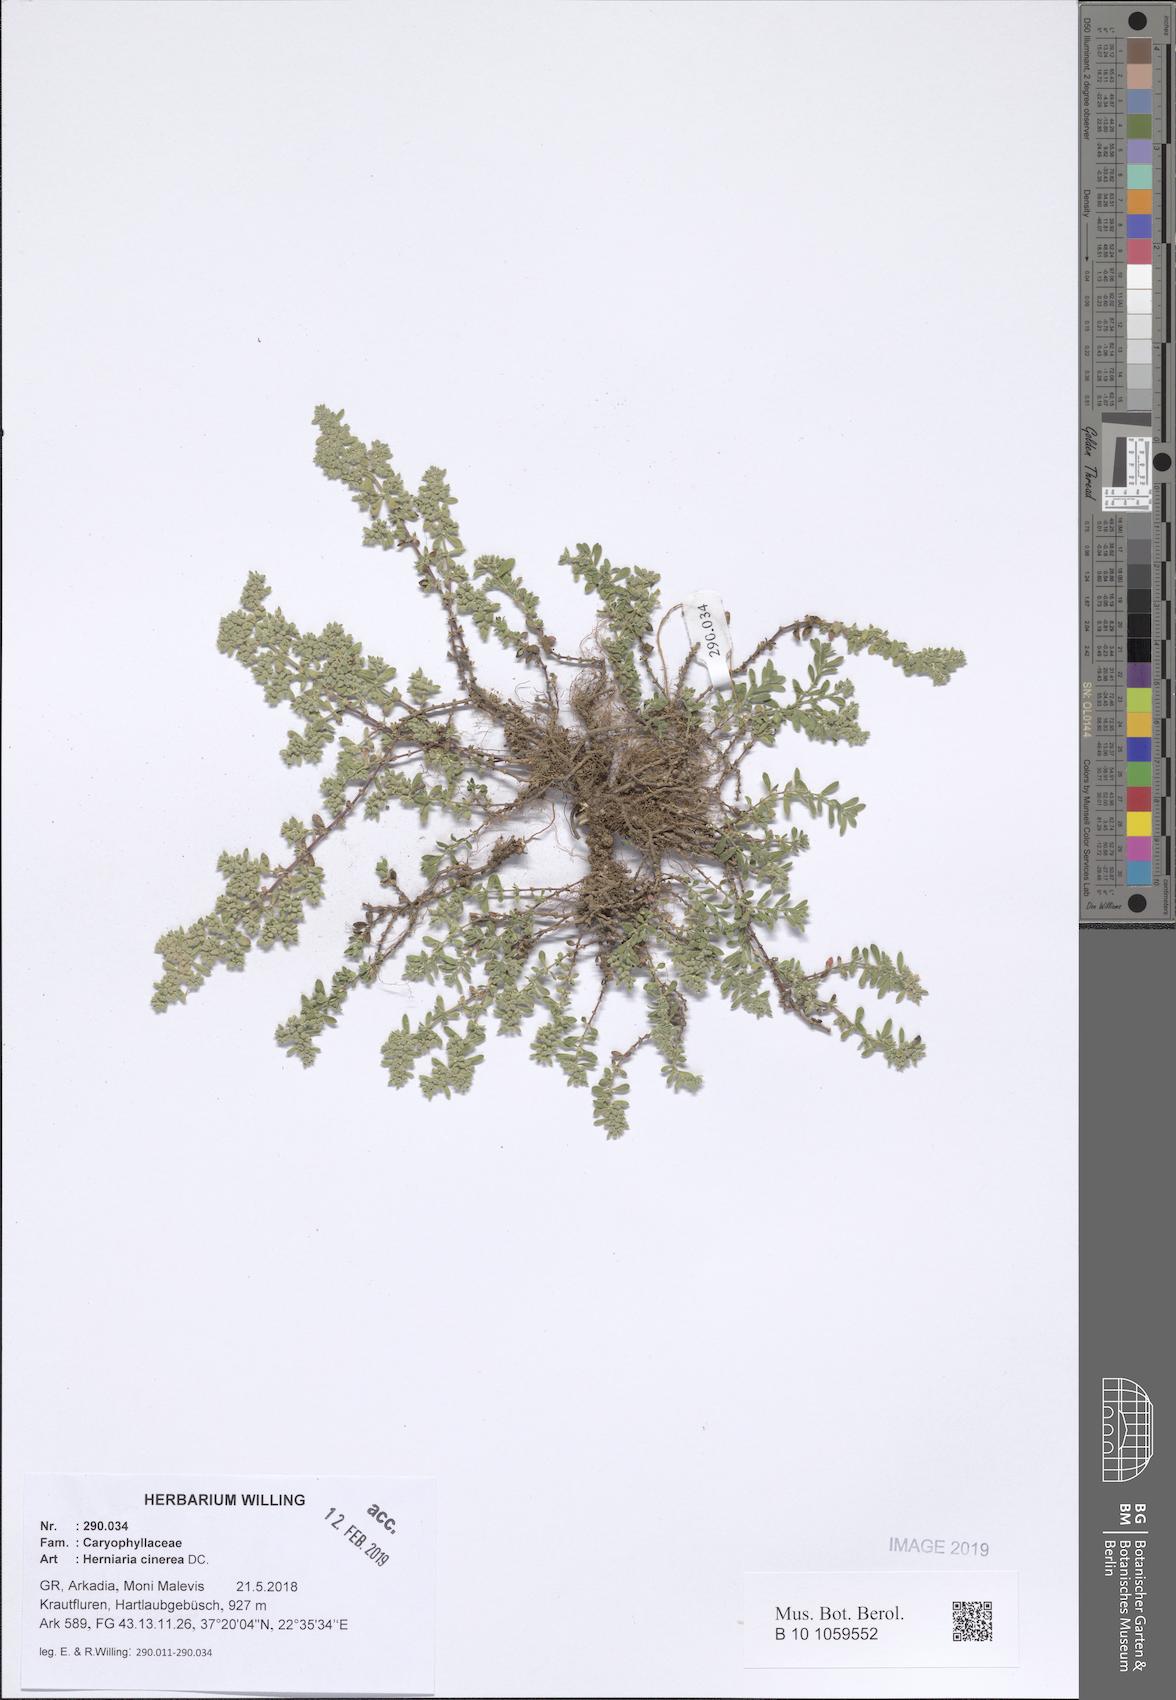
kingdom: Plantae
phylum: Tracheophyta
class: Magnoliopsida
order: Caryophyllales
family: Caryophyllaceae
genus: Herniaria
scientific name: Herniaria cinerea
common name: Hairy rupturewort
